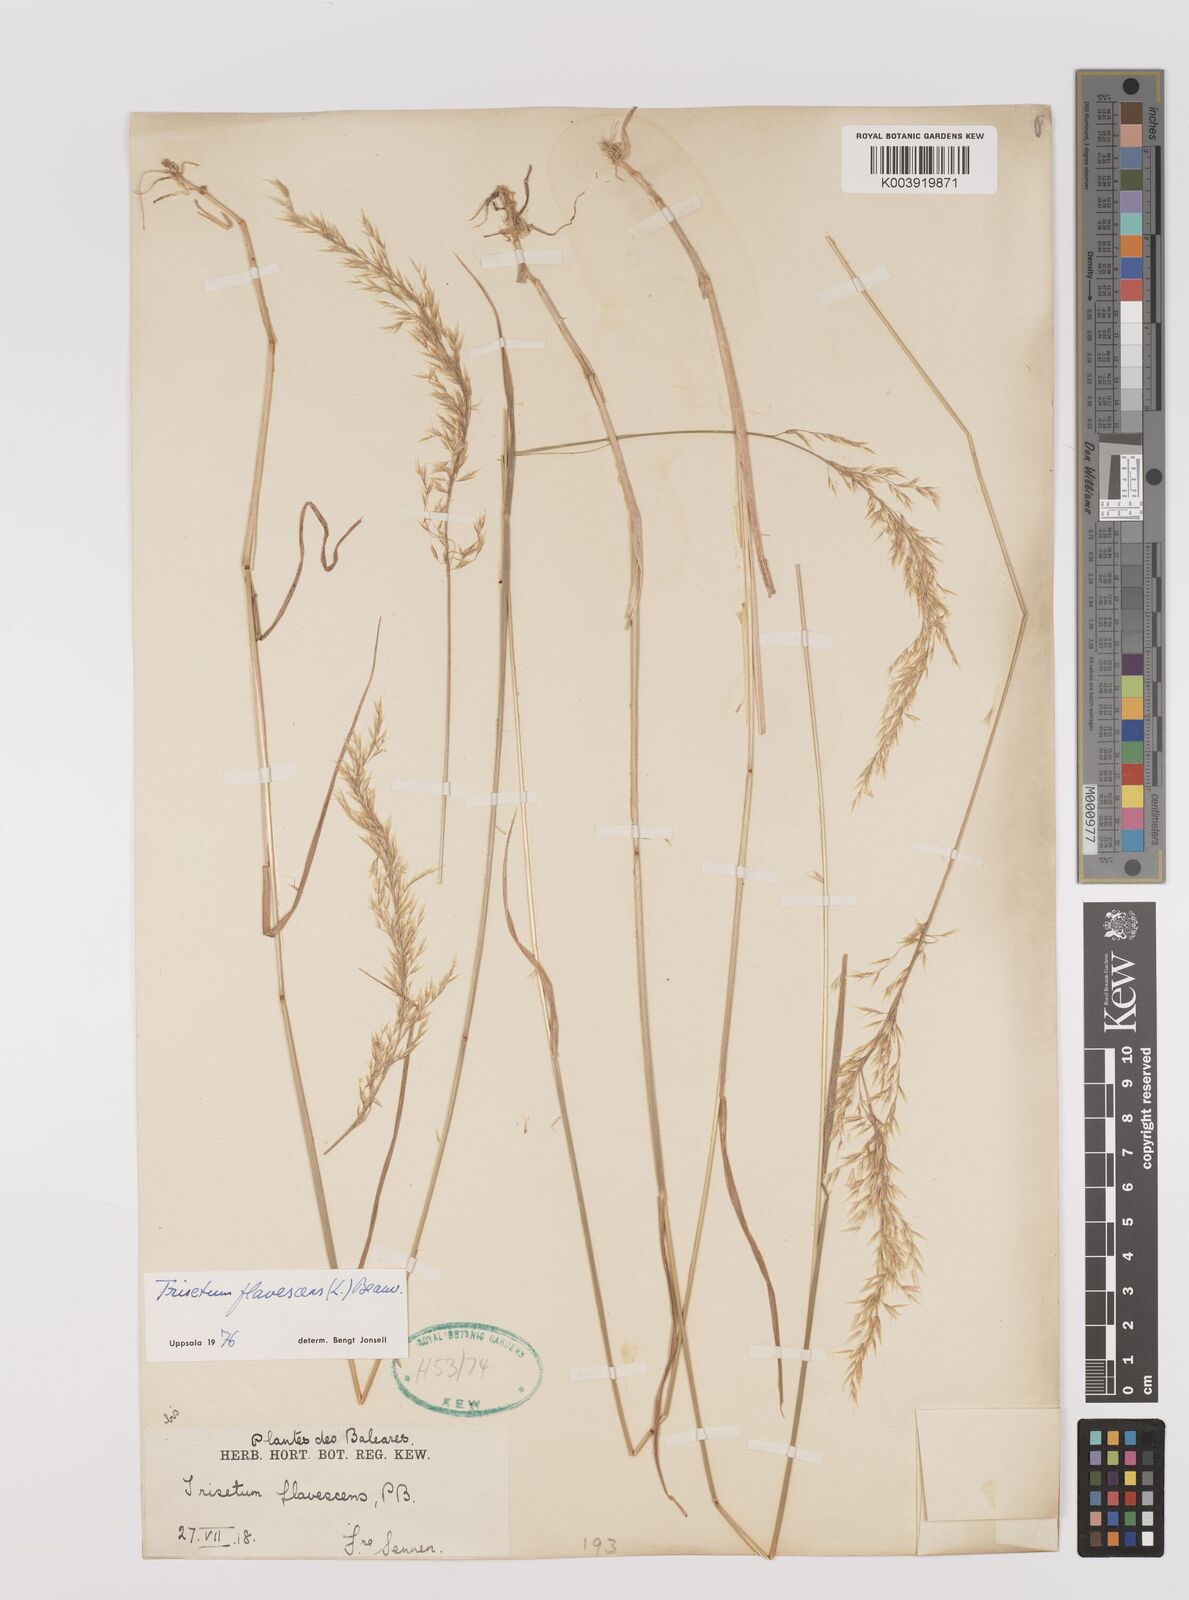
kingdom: Plantae
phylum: Tracheophyta
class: Liliopsida
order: Poales
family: Poaceae
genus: Trisetum
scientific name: Trisetum flavescens
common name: Yellow oat-grass
